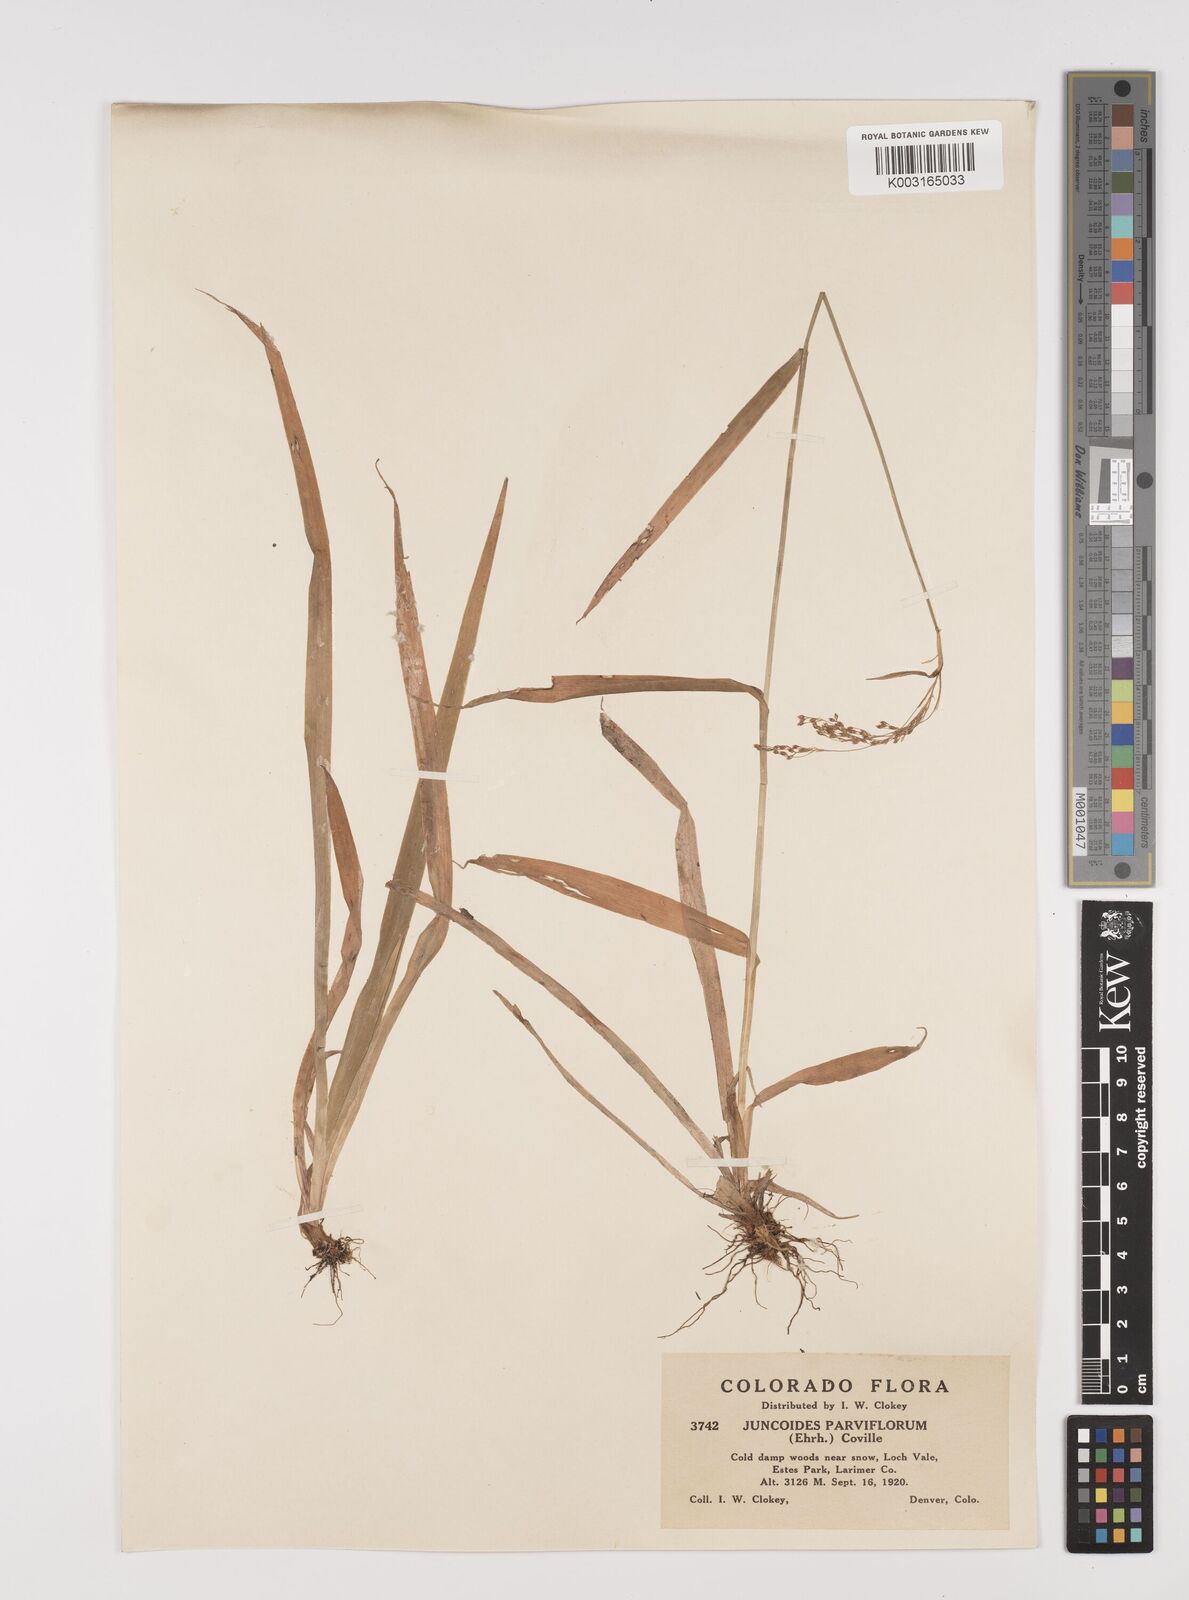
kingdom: Plantae
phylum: Tracheophyta
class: Liliopsida
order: Poales
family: Juncaceae
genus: Luzula
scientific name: Luzula parviflora
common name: Millet woodrush
